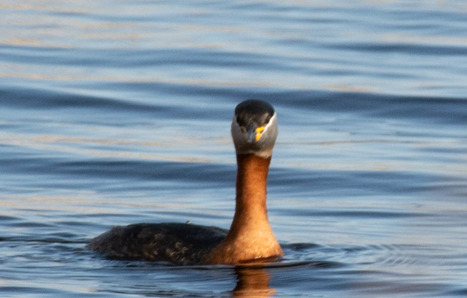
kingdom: Animalia
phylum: Chordata
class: Aves
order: Podicipediformes
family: Podicipedidae
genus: Podiceps
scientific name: Podiceps grisegena
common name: Gråstrubet lappedykker
